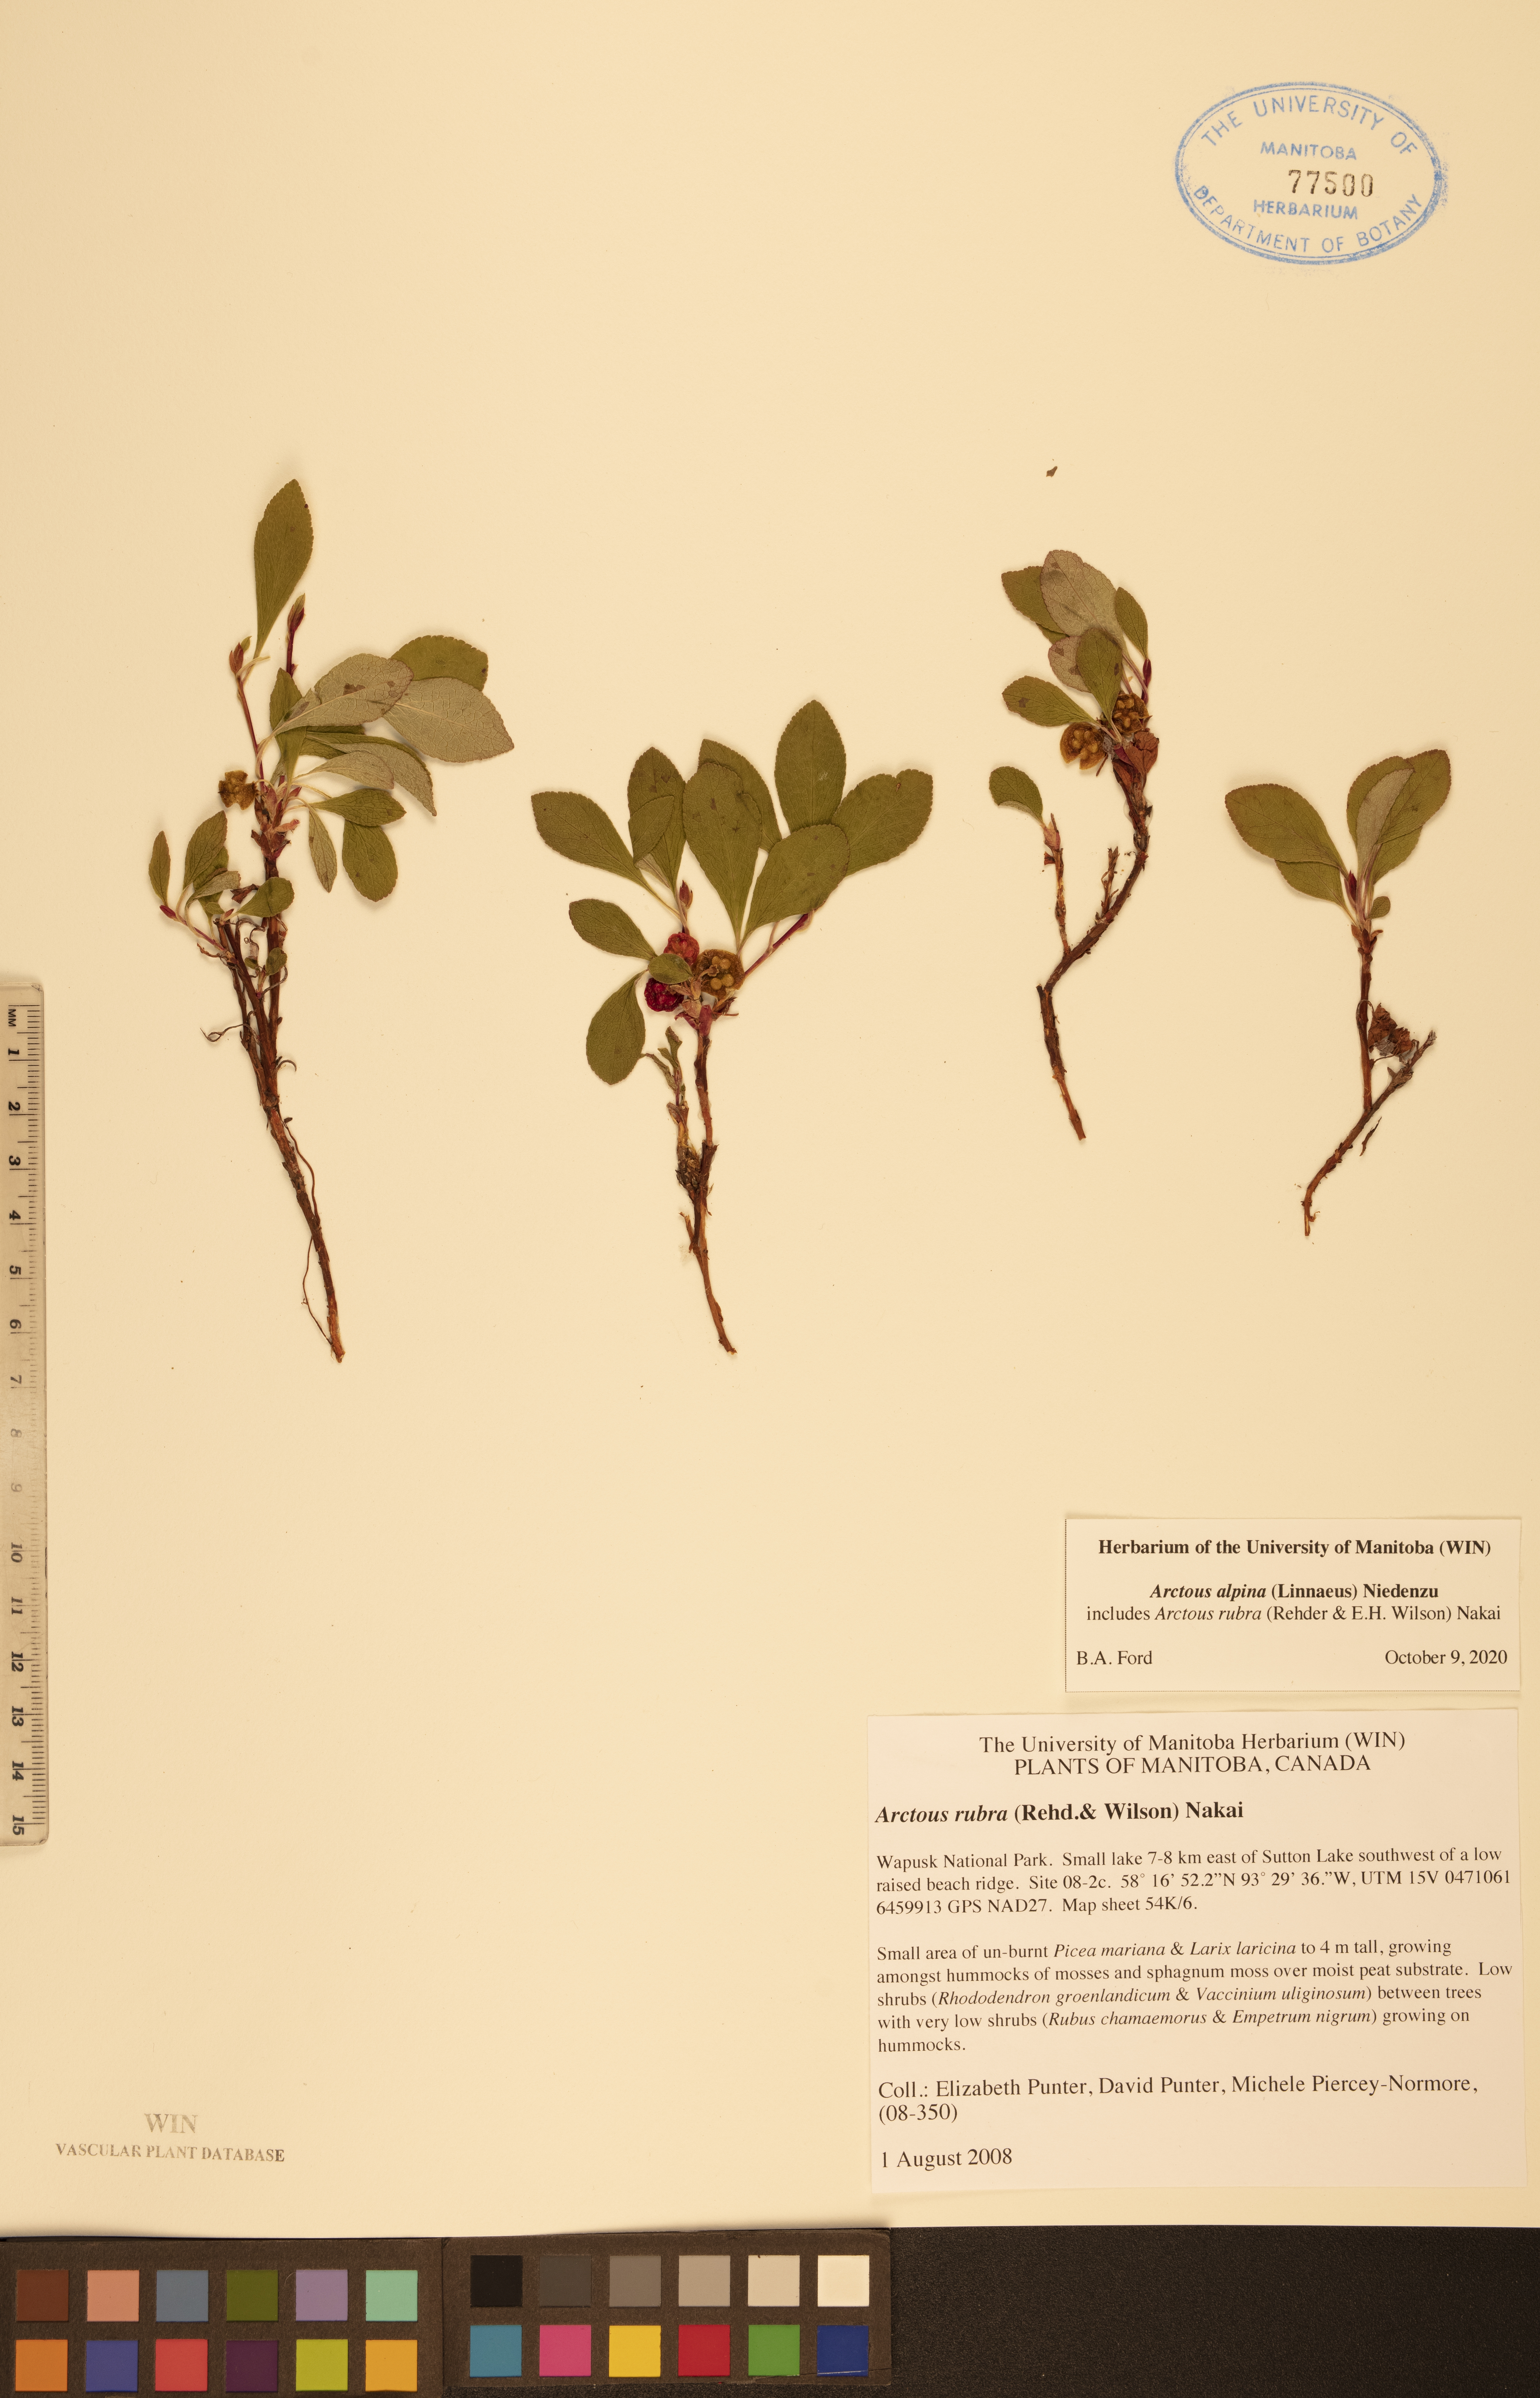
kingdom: Plantae
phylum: Tracheophyta
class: Magnoliopsida
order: Ericales
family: Ericaceae
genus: Arctostaphylos
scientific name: Arctostaphylos alpinus
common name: Alpine bearberry
